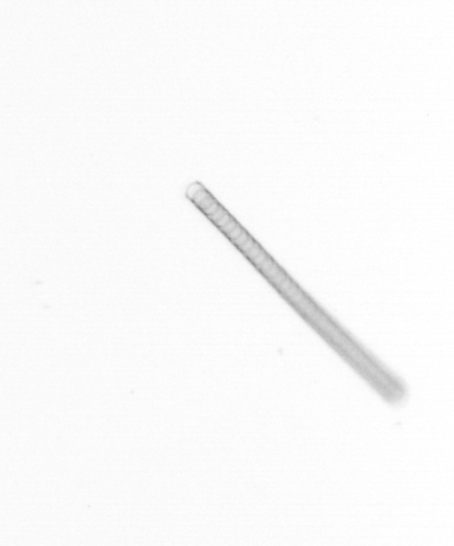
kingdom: Chromista
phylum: Ochrophyta
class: Bacillariophyceae
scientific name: Bacillariophyceae
